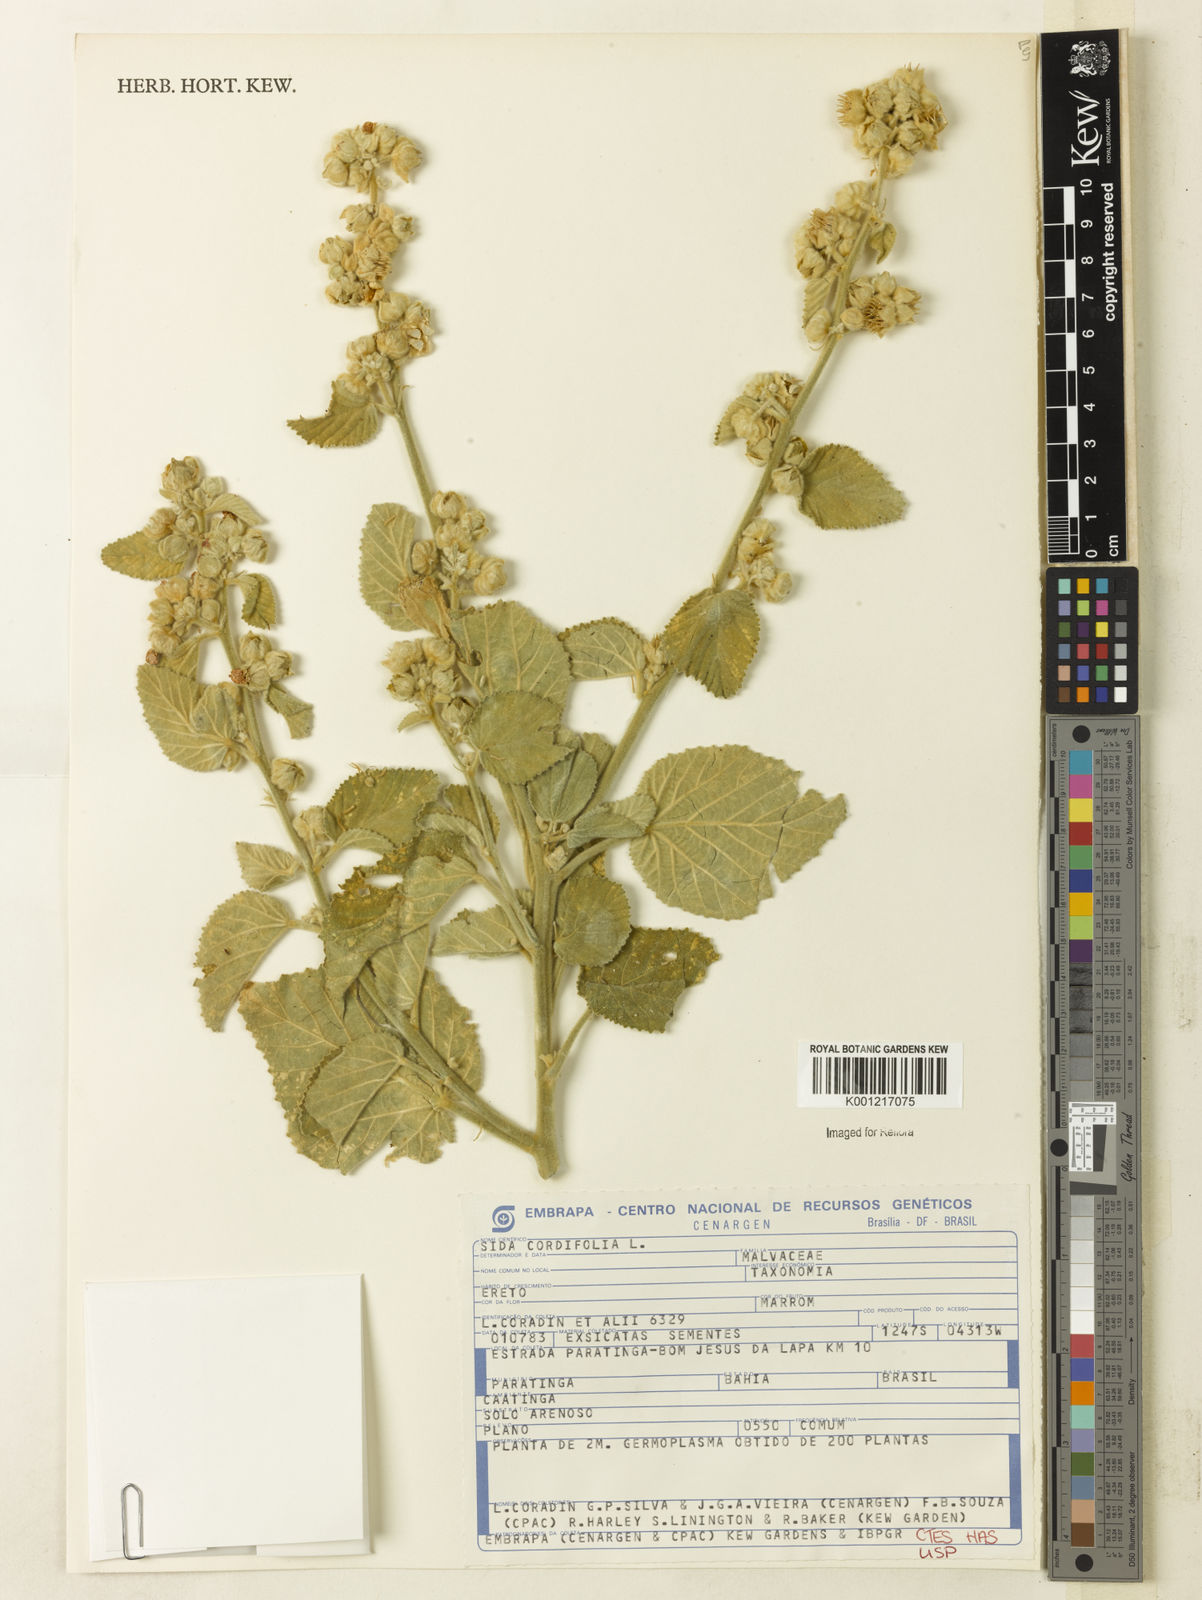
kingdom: Plantae
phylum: Tracheophyta
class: Magnoliopsida
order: Malvales
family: Malvaceae
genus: Sida
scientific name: Sida cordifolia
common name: Ilima
